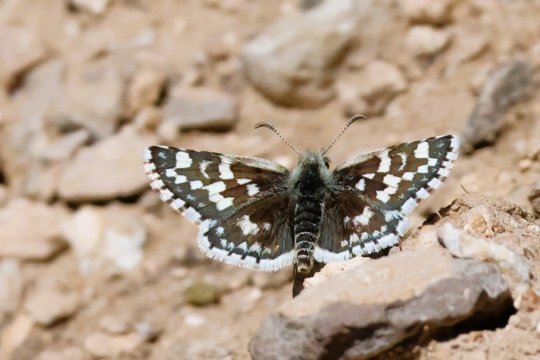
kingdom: Animalia
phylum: Arthropoda
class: Insecta
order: Lepidoptera
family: Hesperiidae
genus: Pyrgus
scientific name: Pyrgus scriptura
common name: Small Checkered-Skipper
